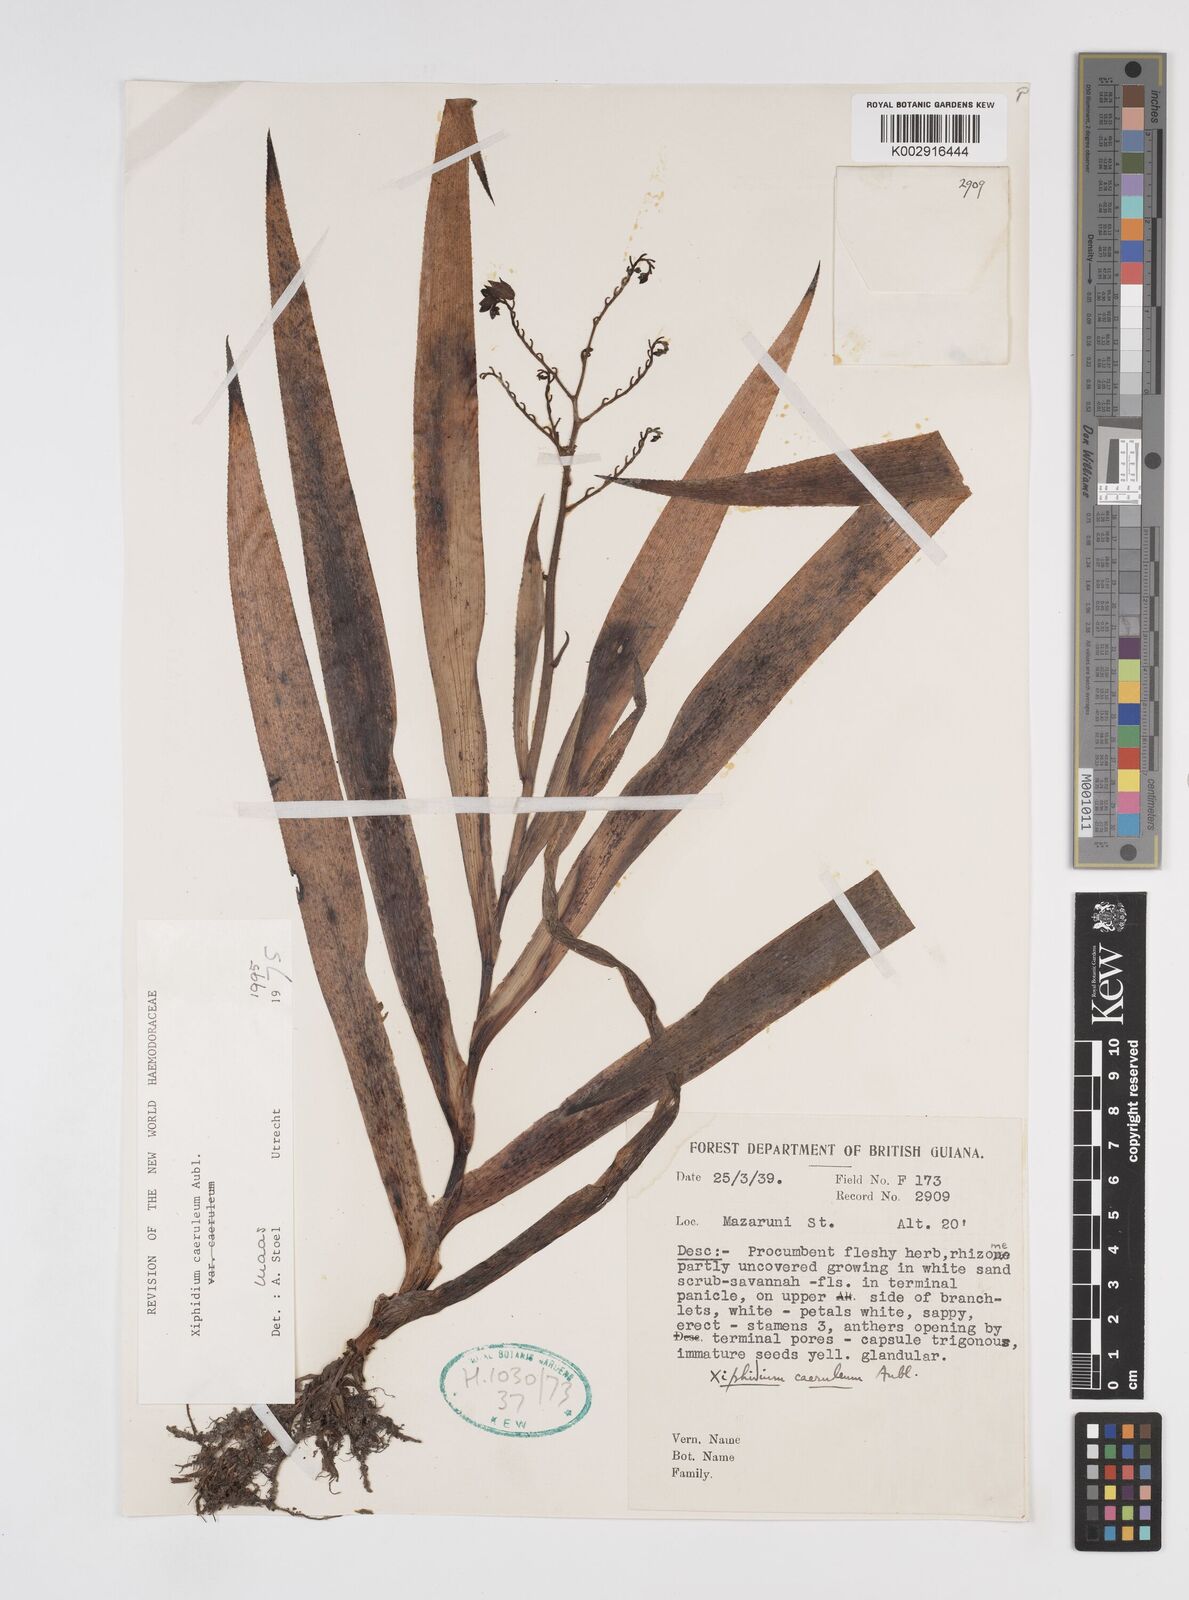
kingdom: Plantae
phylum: Tracheophyta
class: Liliopsida
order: Commelinales
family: Haemodoraceae
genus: Xiphidium
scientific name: Xiphidium caeruleum
